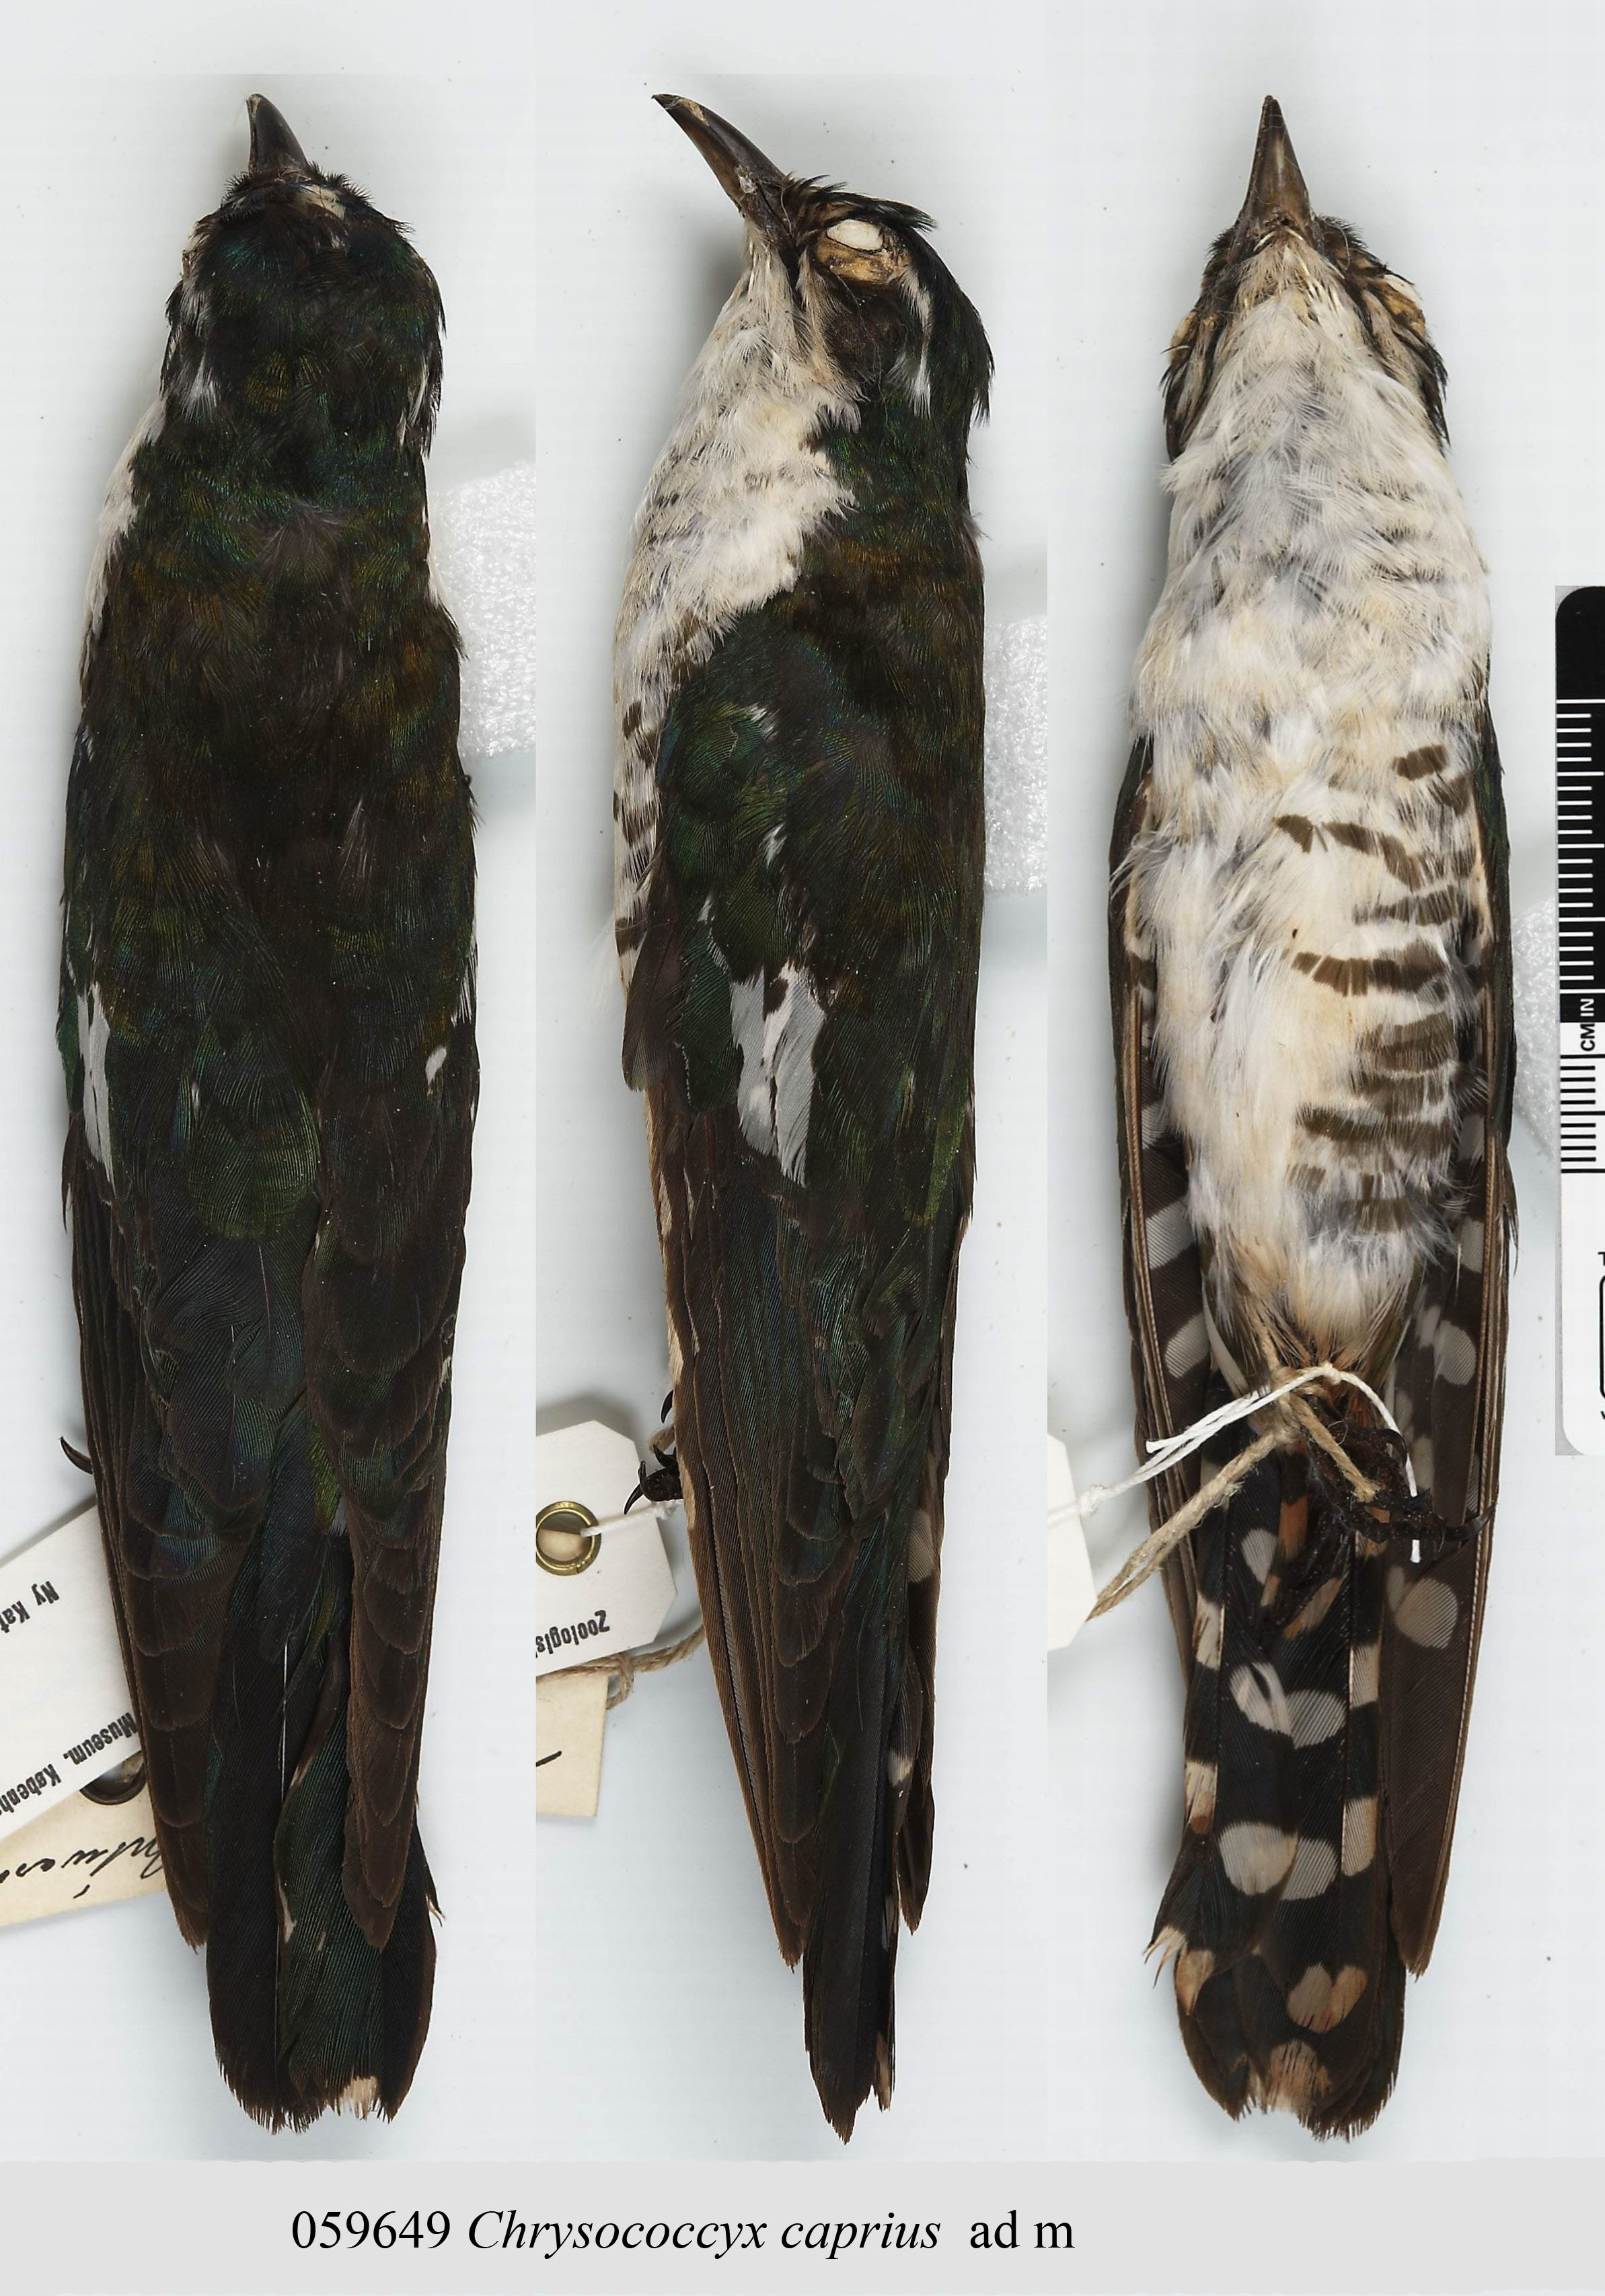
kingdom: Animalia
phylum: Chordata
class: Aves
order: Cuculiformes
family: Cuculidae
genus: Chrysococcyx
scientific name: Chrysococcyx caprius
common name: Diederik cuckoo
